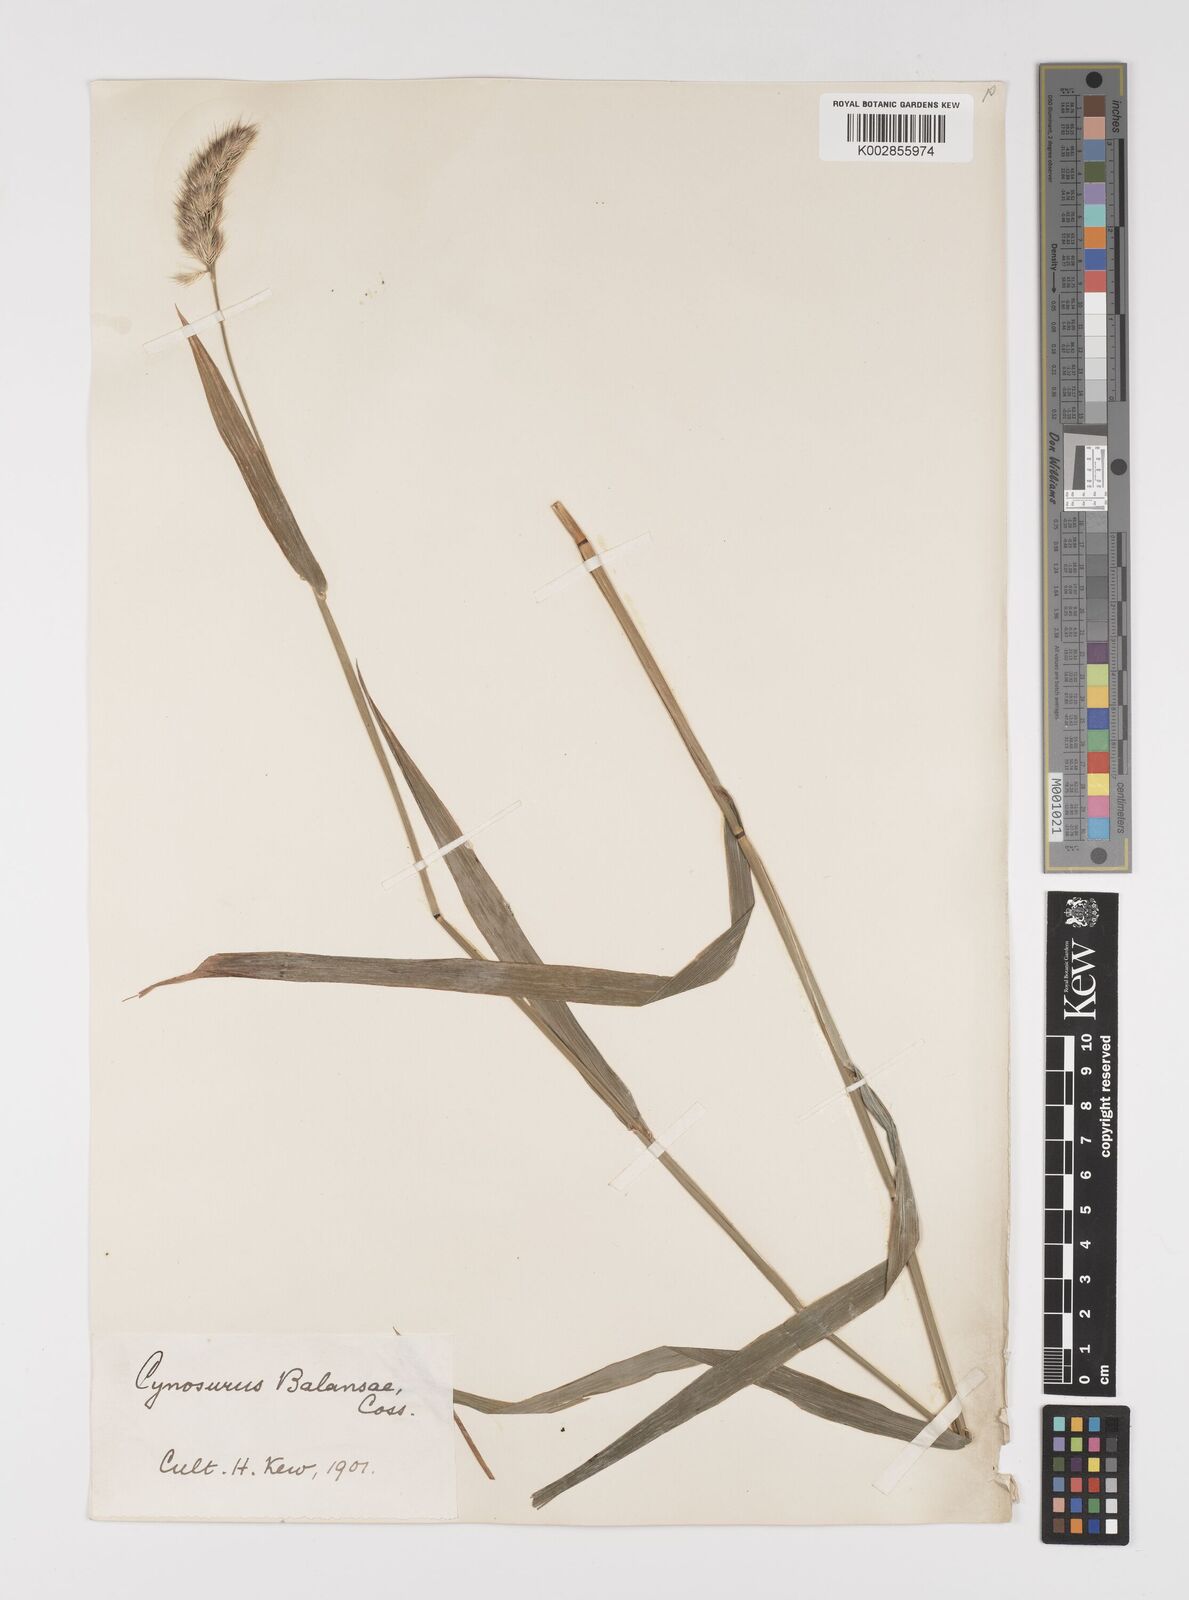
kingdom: Plantae
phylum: Tracheophyta
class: Liliopsida
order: Poales
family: Poaceae
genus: Cynosurus
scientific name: Cynosurus balansae
